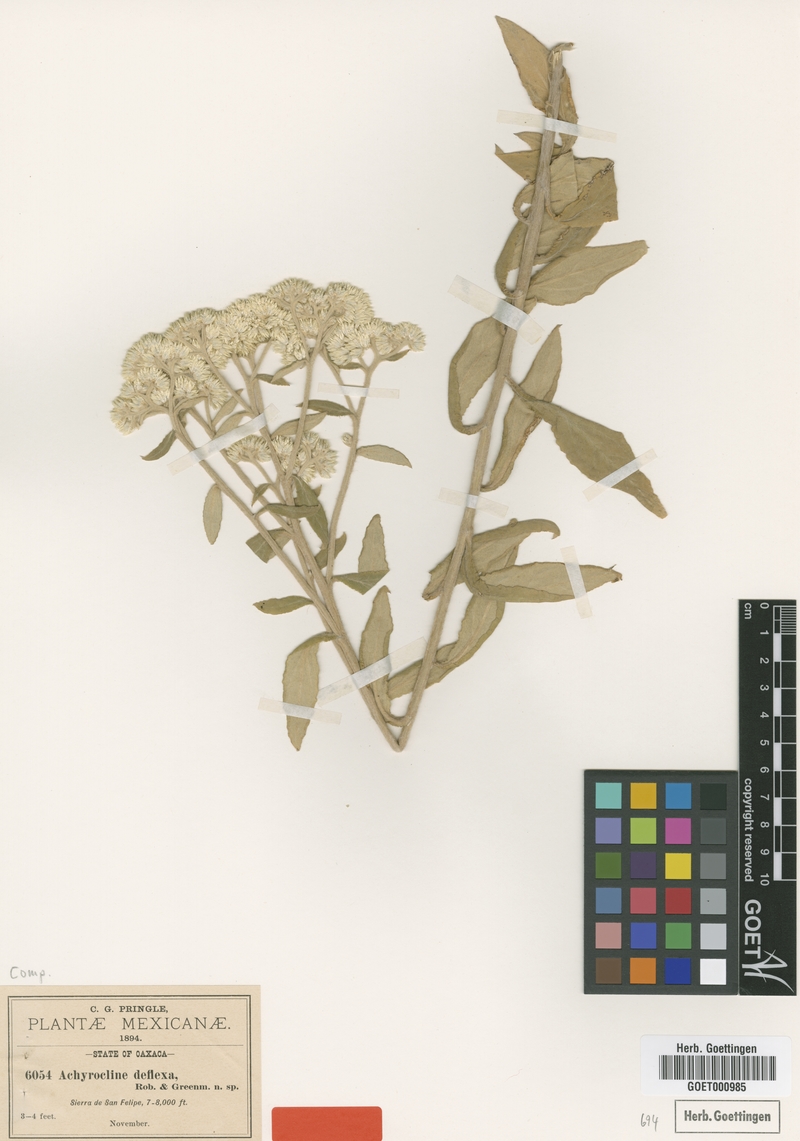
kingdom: Plantae
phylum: Tracheophyta
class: Magnoliopsida
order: Asterales
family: Asteraceae
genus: Achyrocline
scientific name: Achyrocline deflexa
